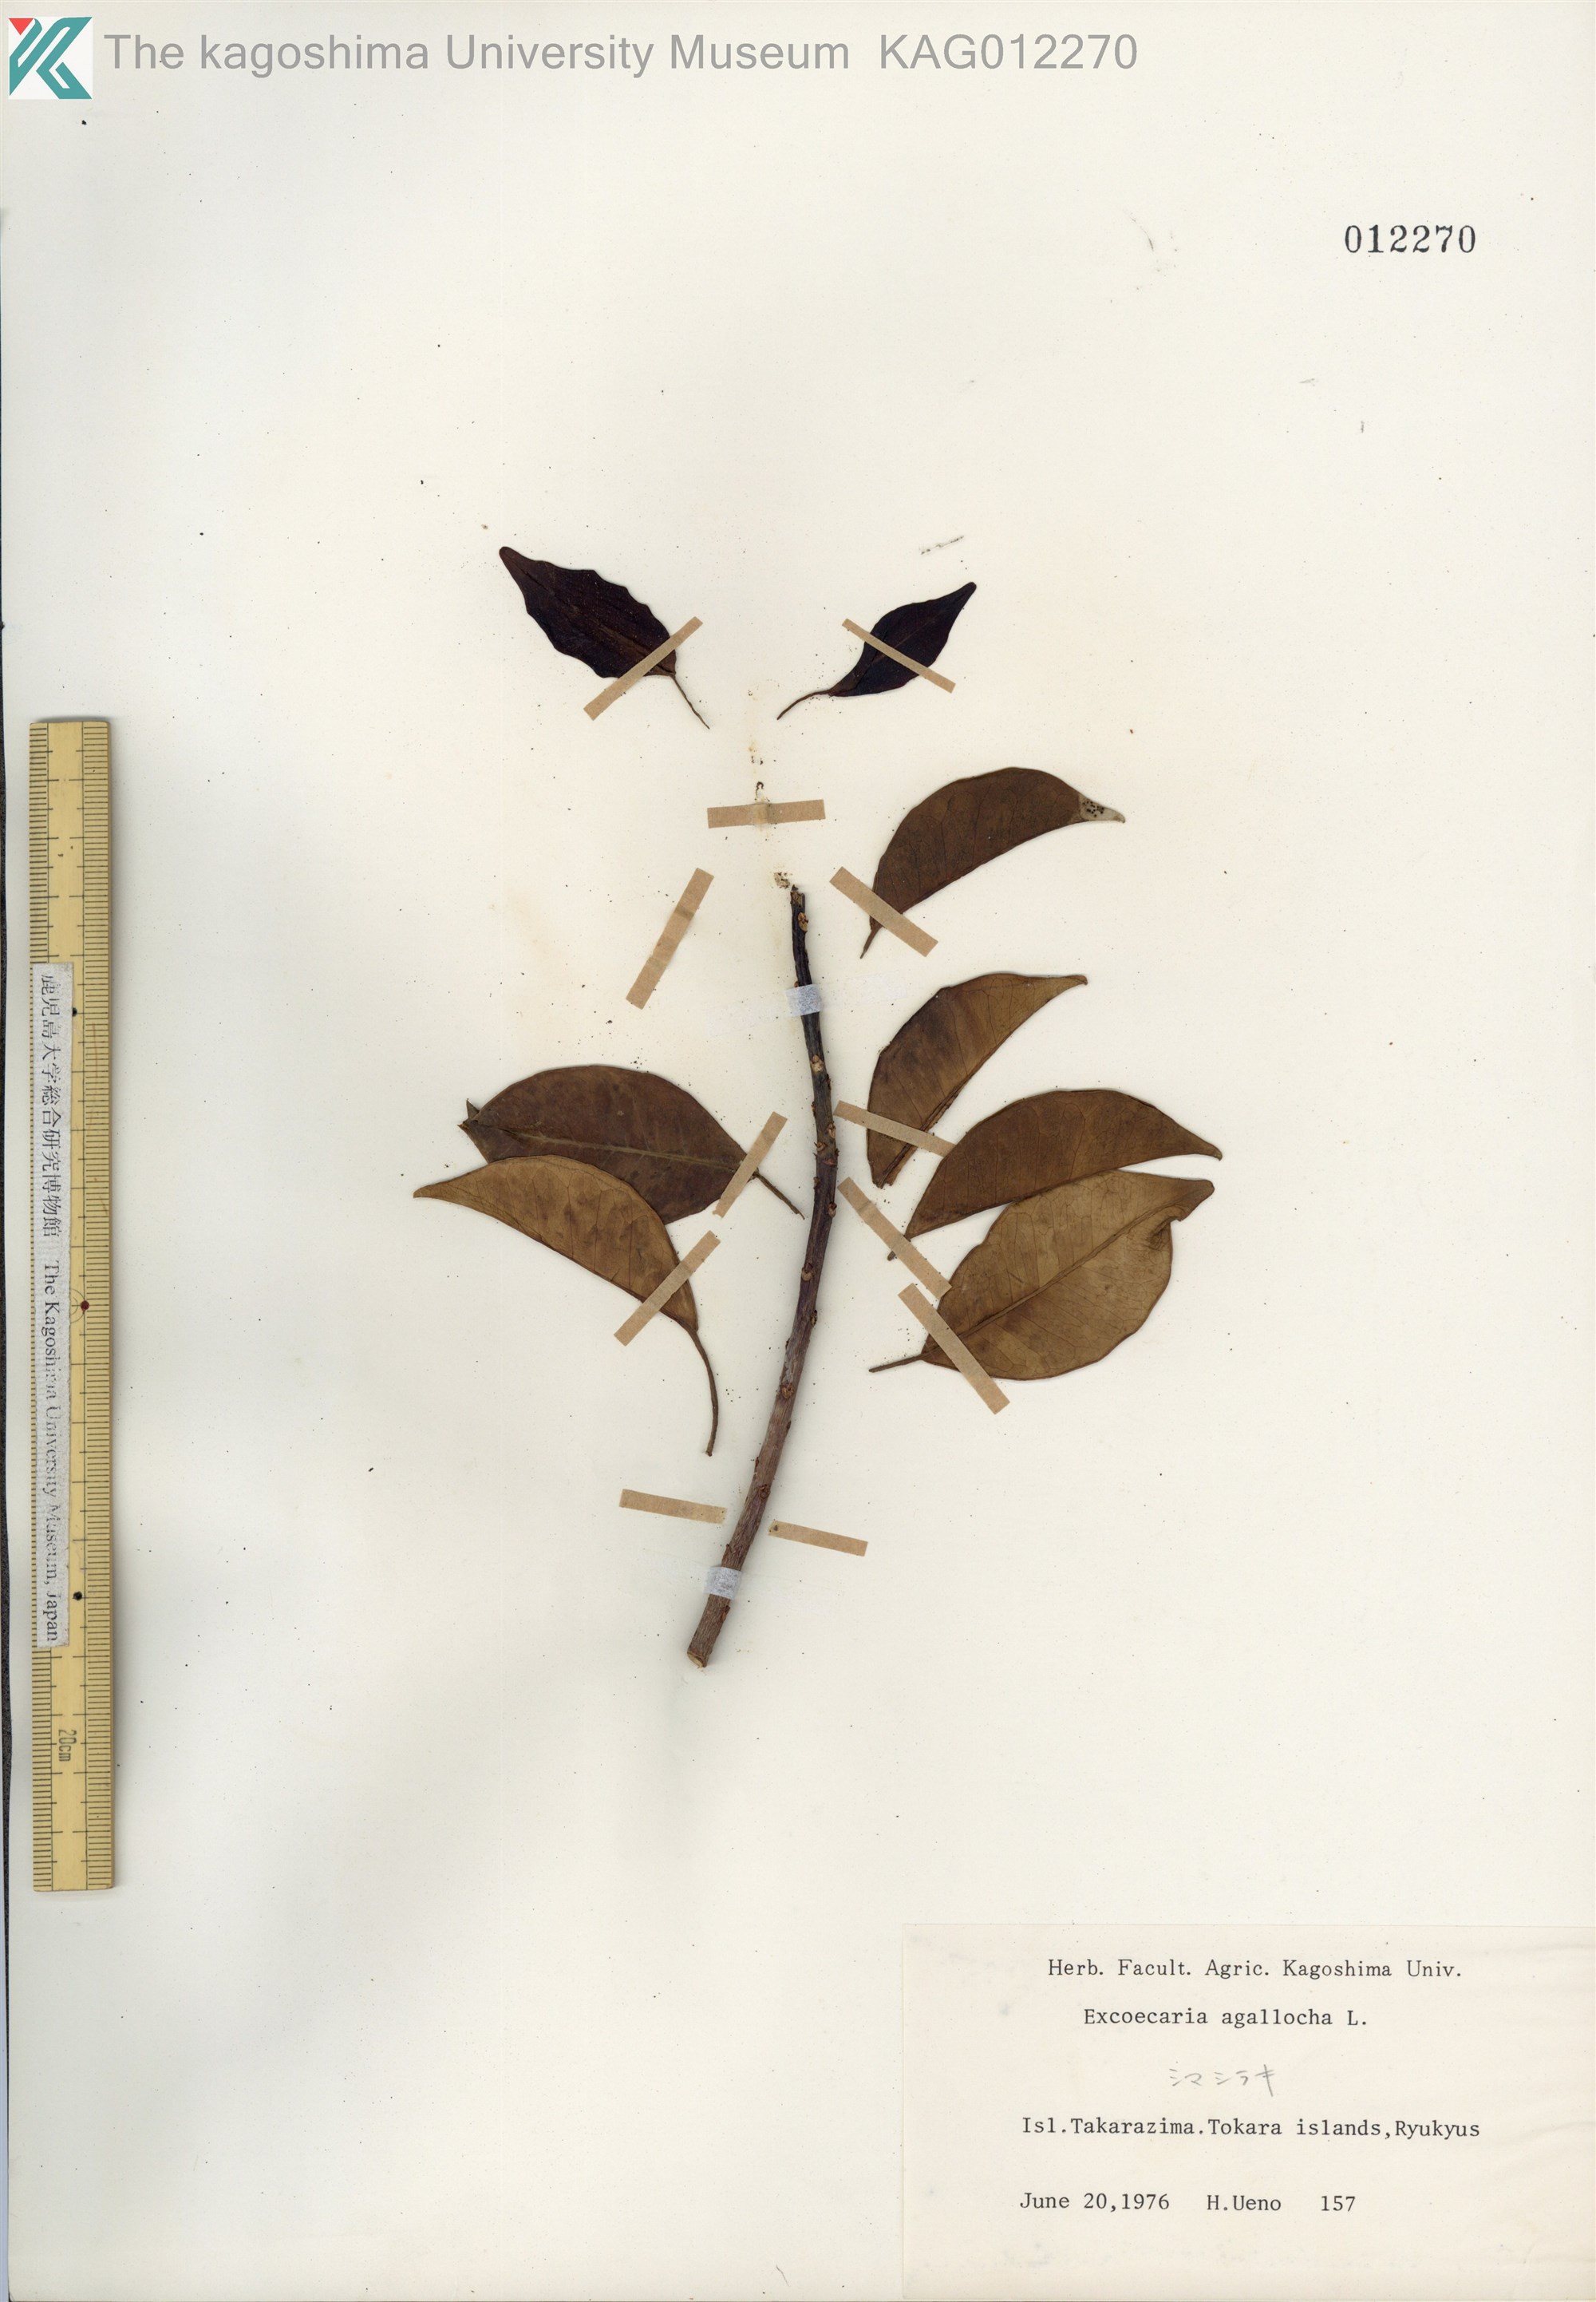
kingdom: Plantae
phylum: Tracheophyta
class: Magnoliopsida
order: Malpighiales
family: Euphorbiaceae
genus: Excoecaria
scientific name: Excoecaria agallocha
